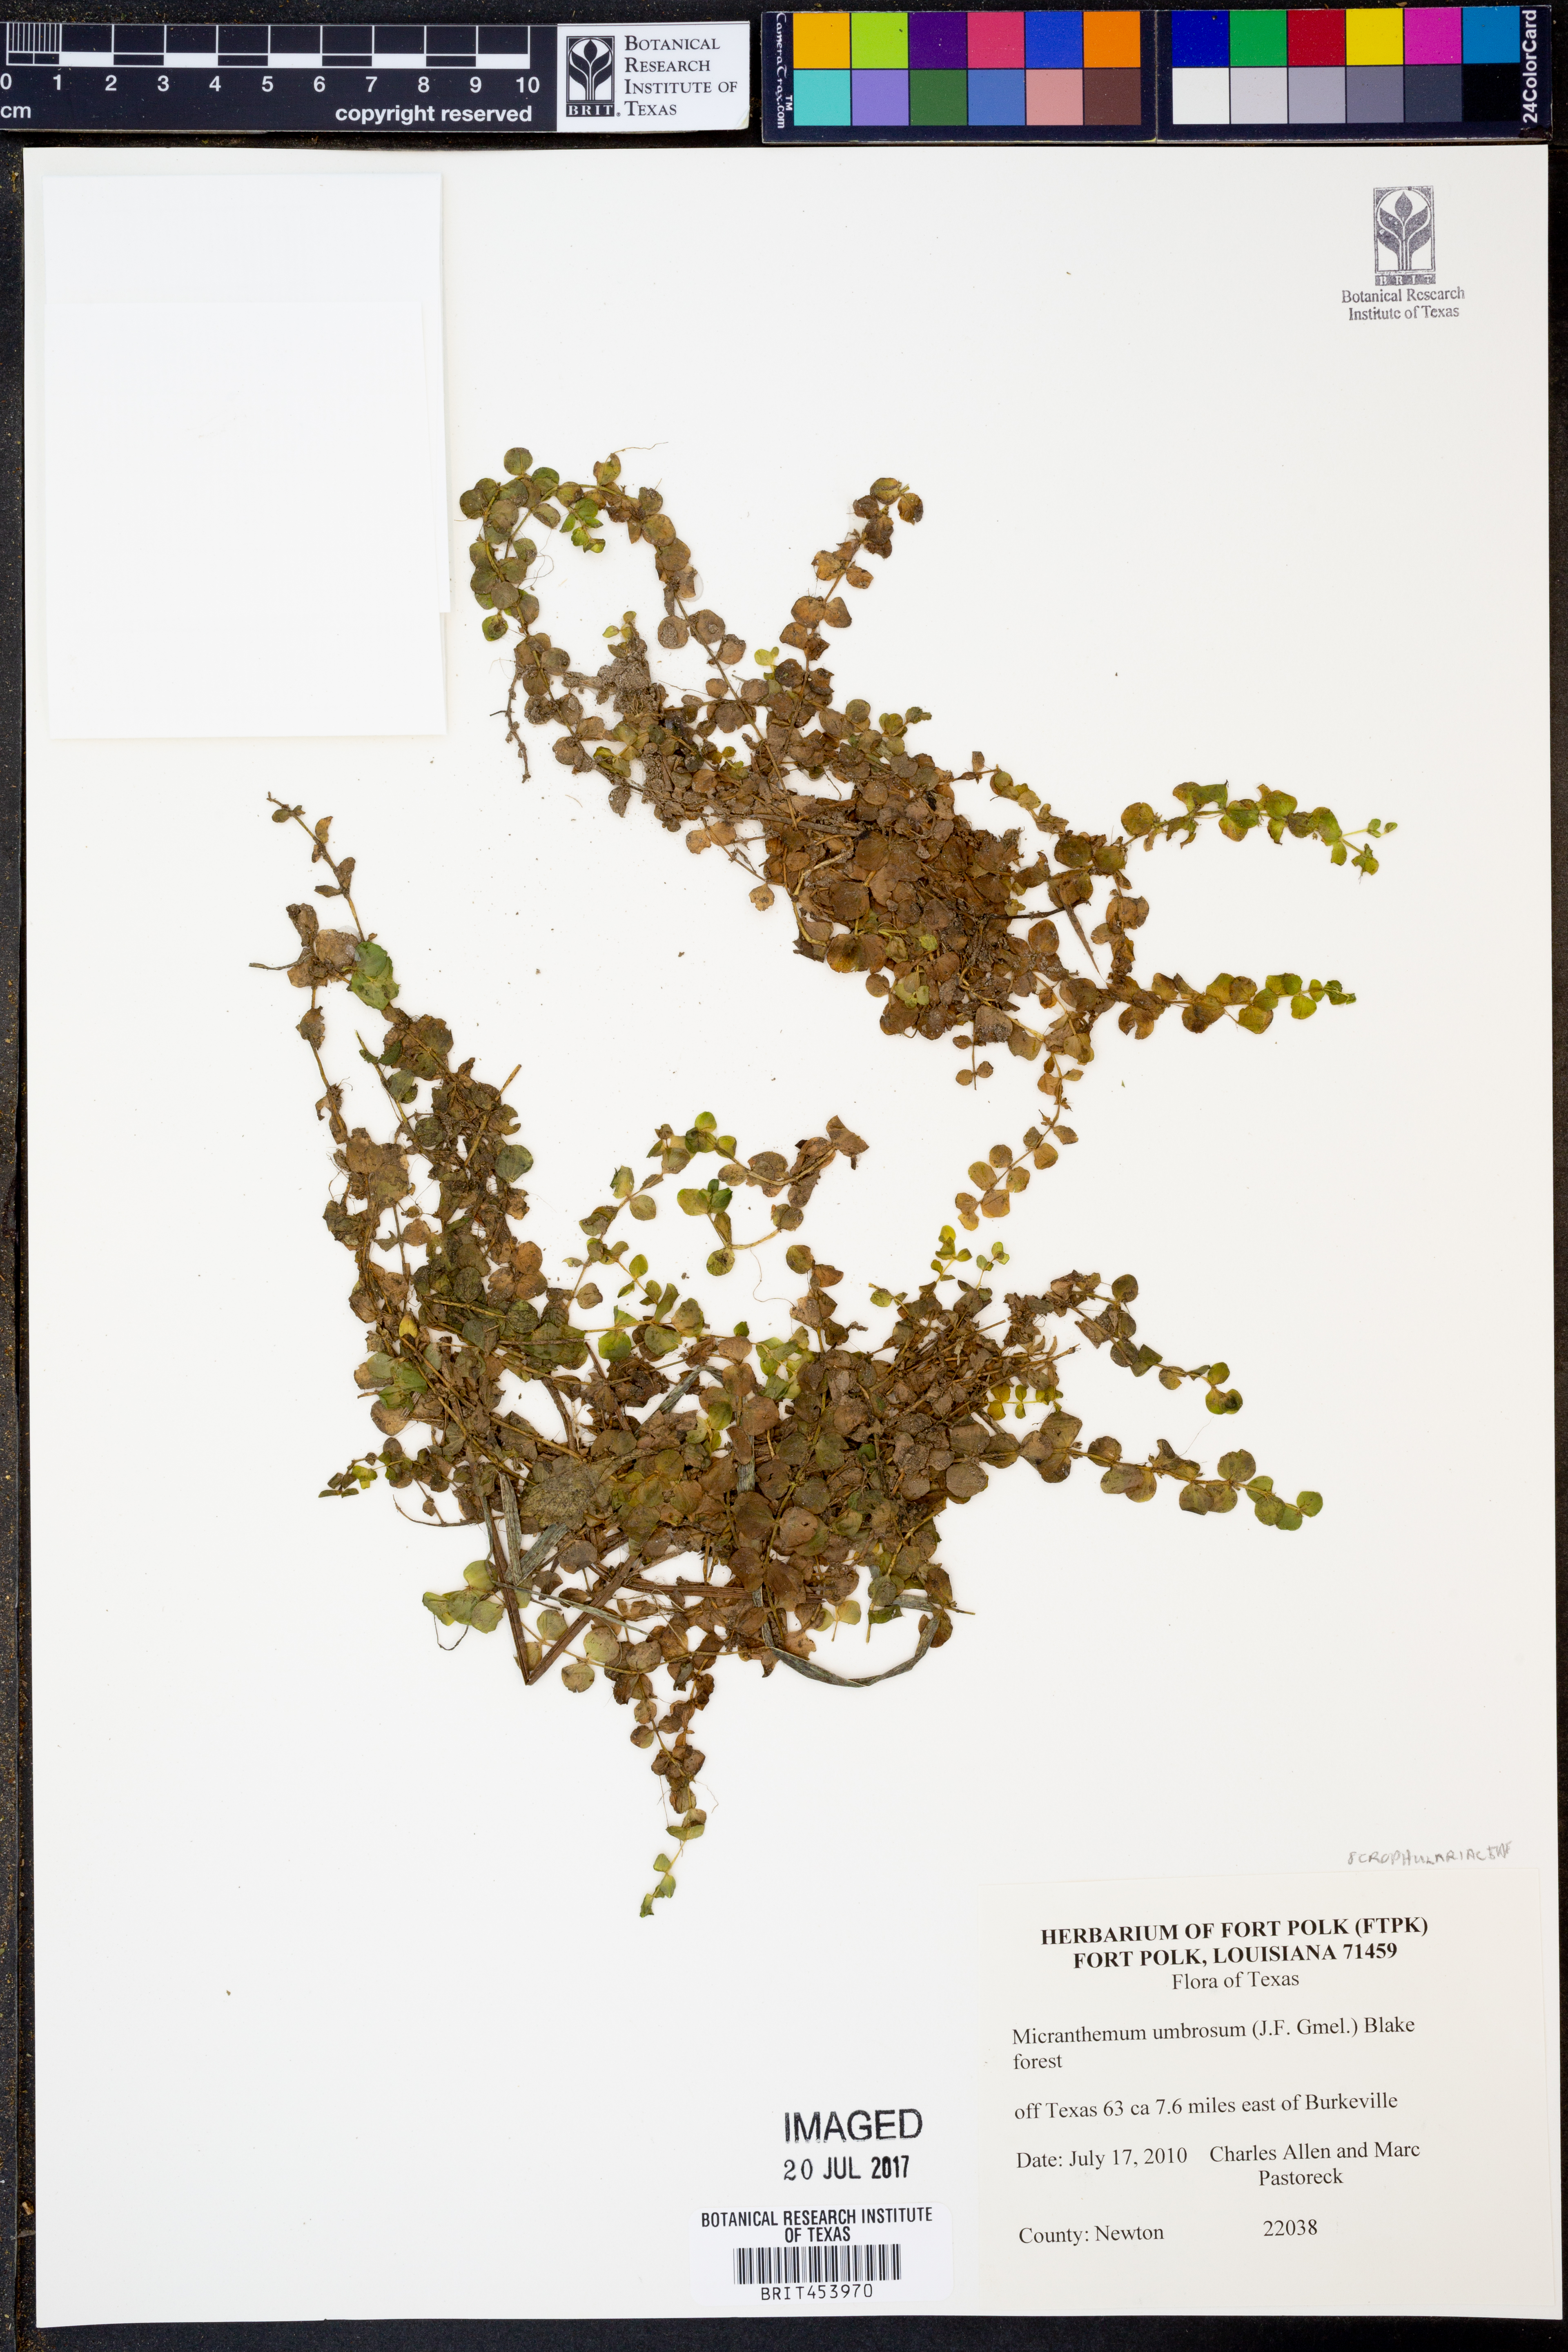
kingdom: Plantae
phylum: Tracheophyta
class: Magnoliopsida
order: Lamiales
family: Linderniaceae
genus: Micranthemum
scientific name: Micranthemum umbrosum
